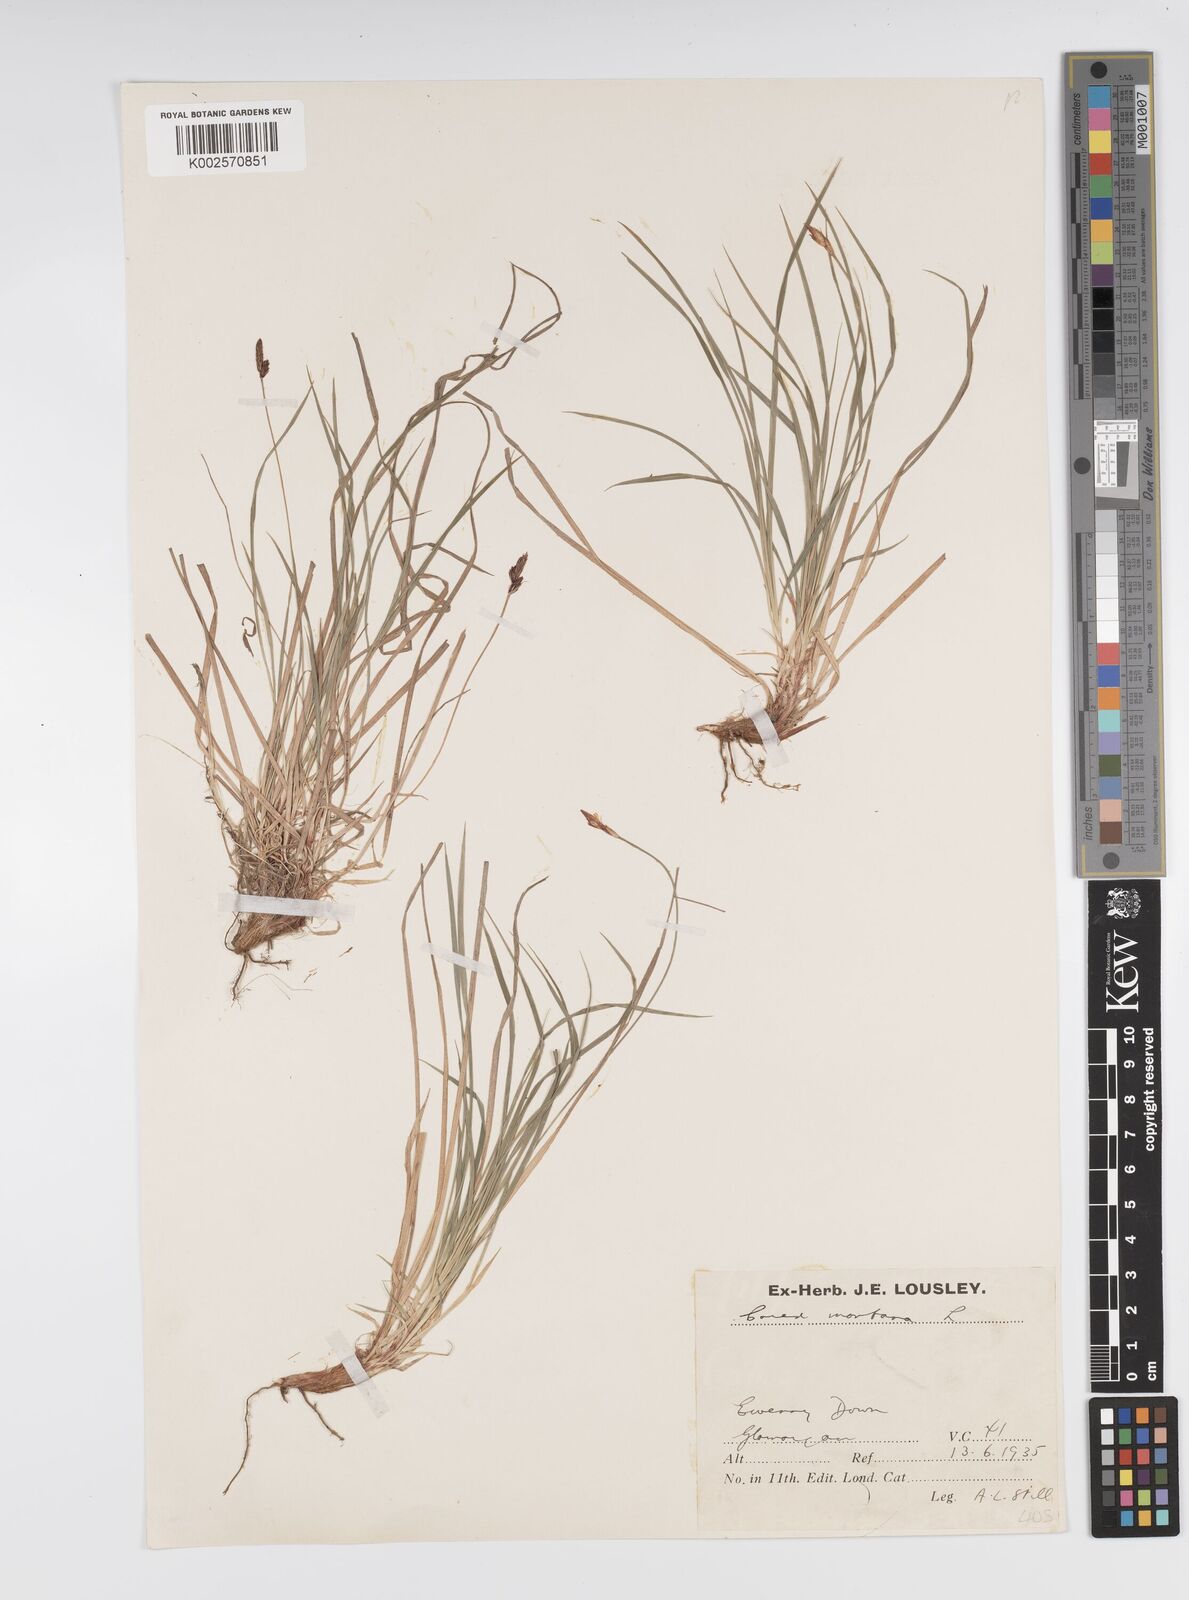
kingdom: Plantae
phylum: Tracheophyta
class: Liliopsida
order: Poales
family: Cyperaceae
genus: Carex
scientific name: Carex montana
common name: Soft-leaved sedge
